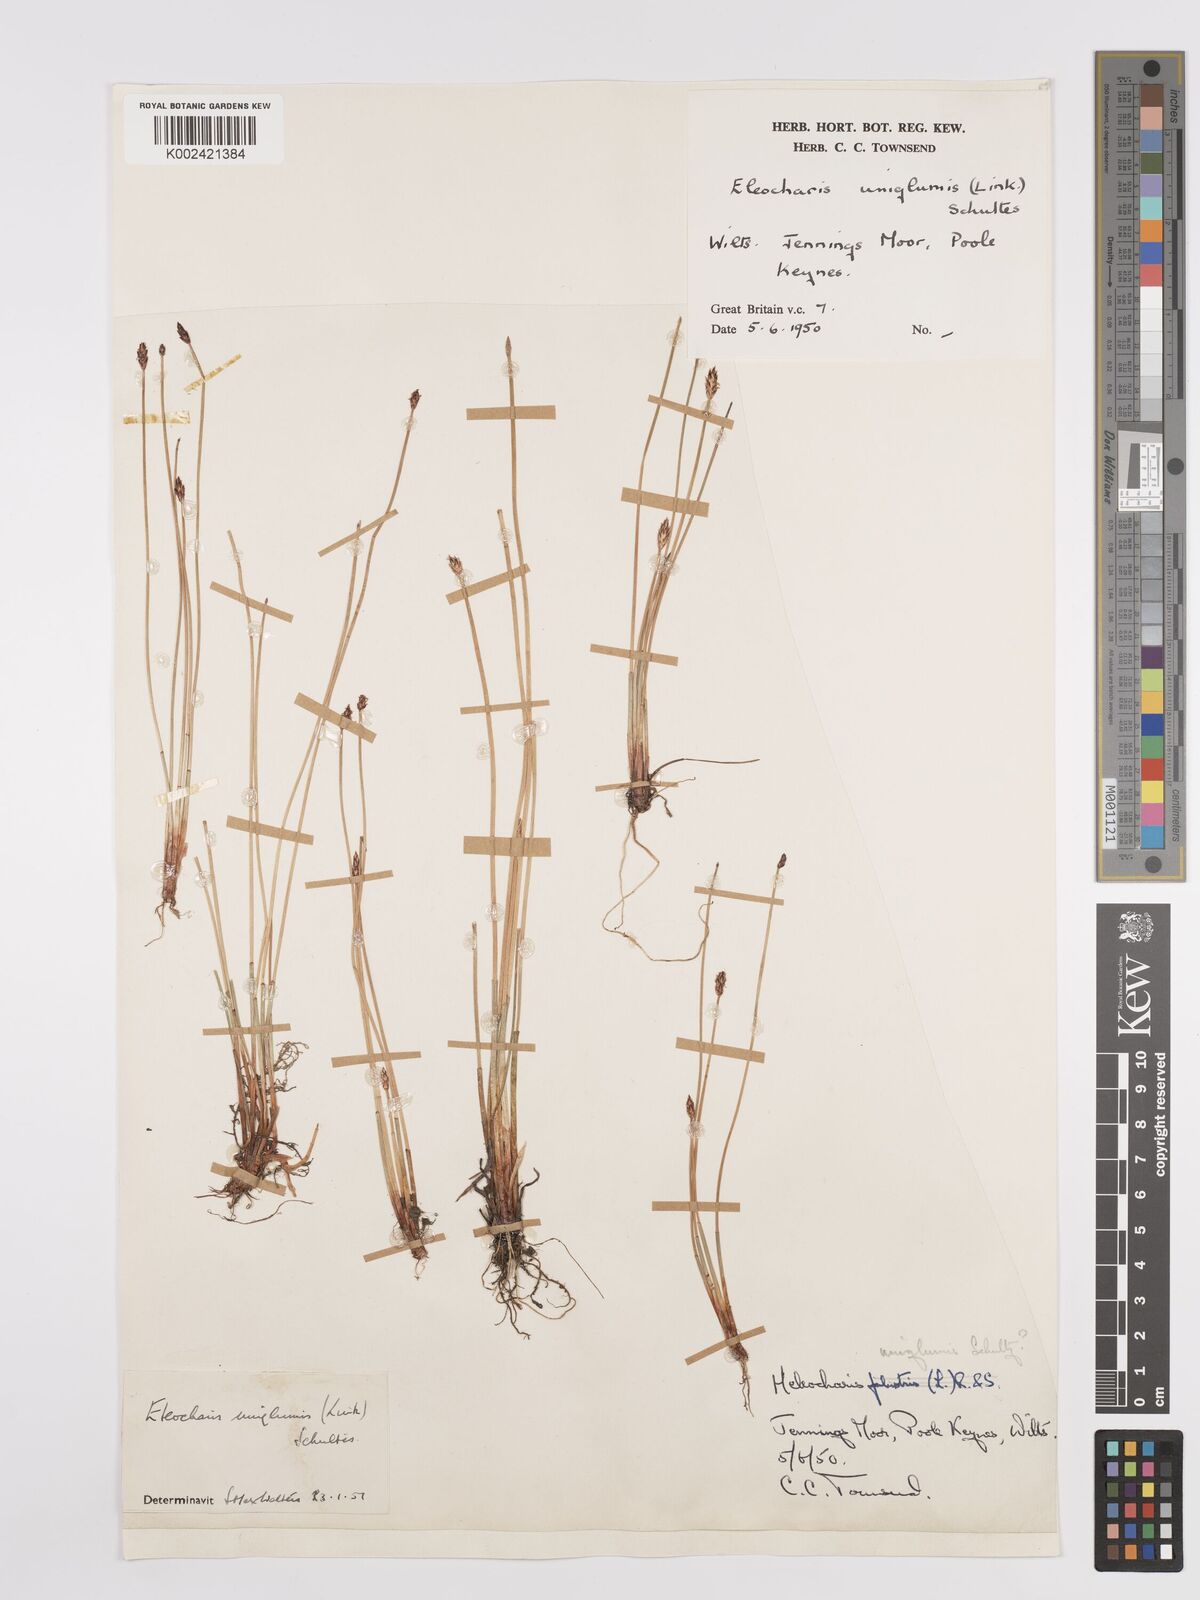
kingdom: Plantae
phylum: Tracheophyta
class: Liliopsida
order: Poales
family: Cyperaceae
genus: Eleocharis
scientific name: Eleocharis uniglumis
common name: Slender spike-rush
